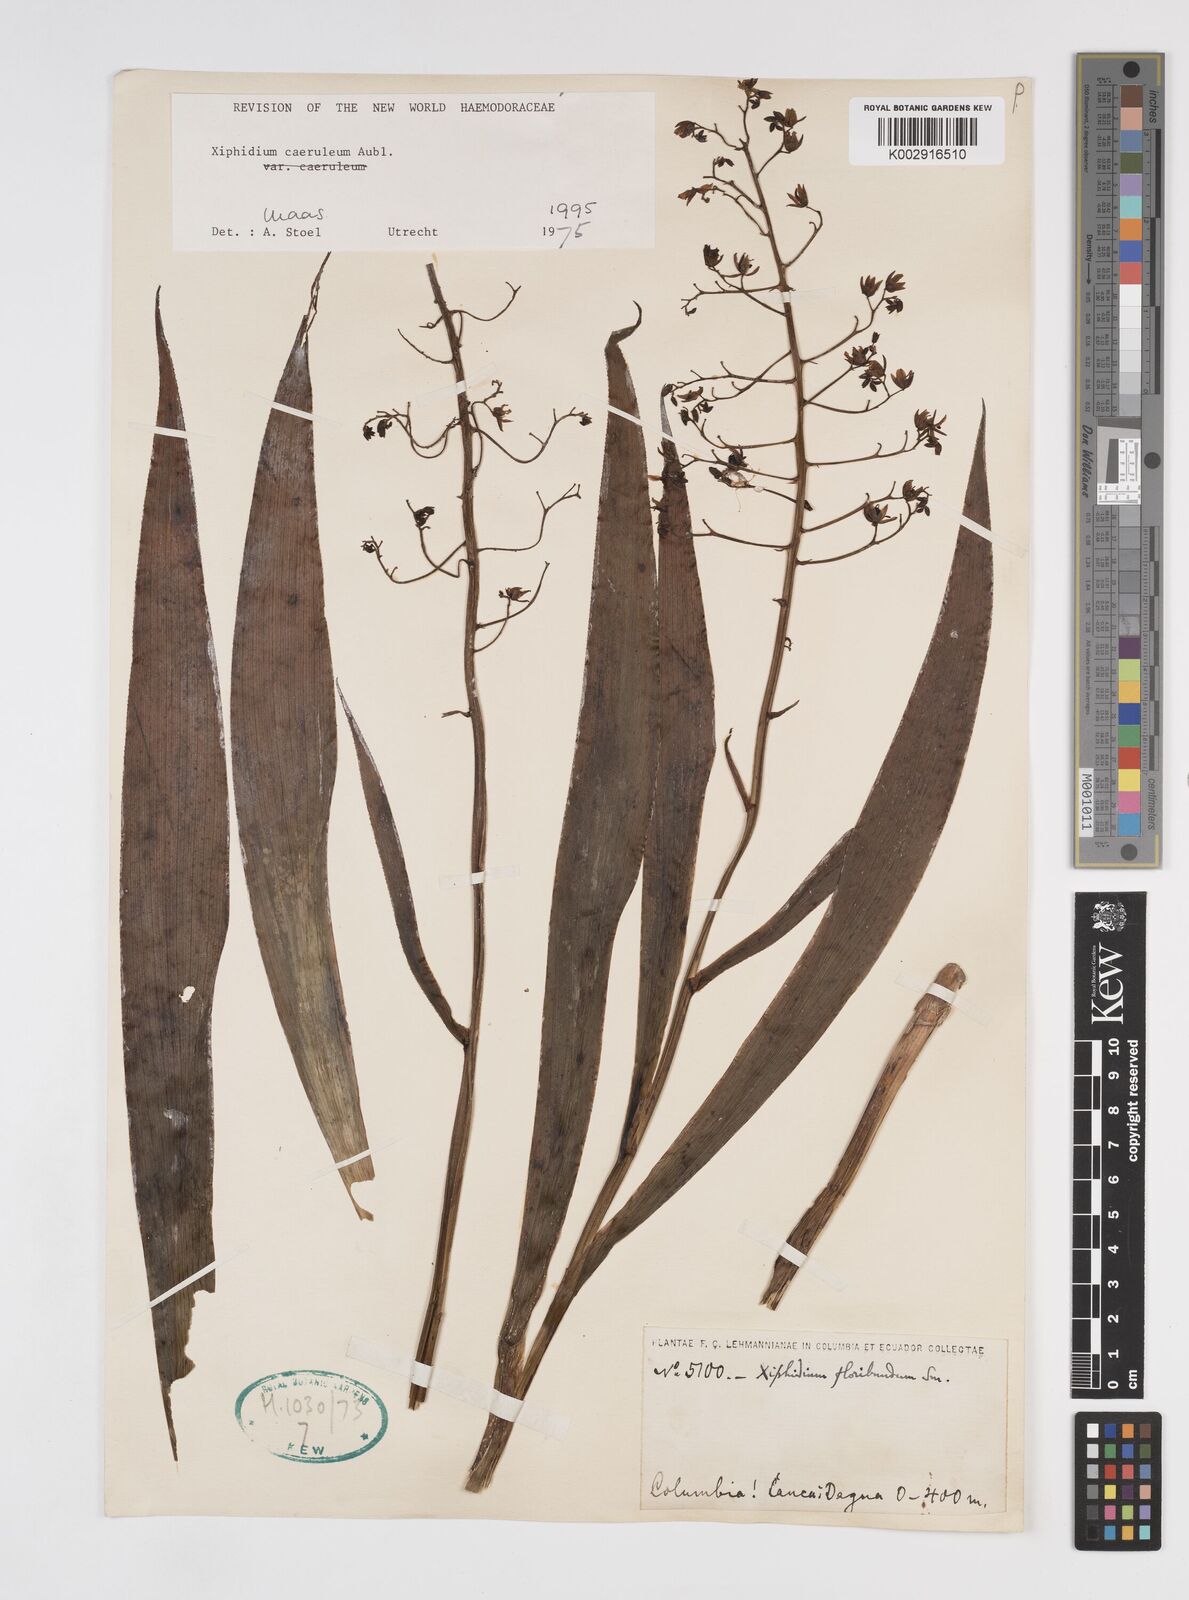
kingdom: Plantae
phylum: Tracheophyta
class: Liliopsida
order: Commelinales
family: Haemodoraceae
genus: Xiphidium
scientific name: Xiphidium caeruleum
